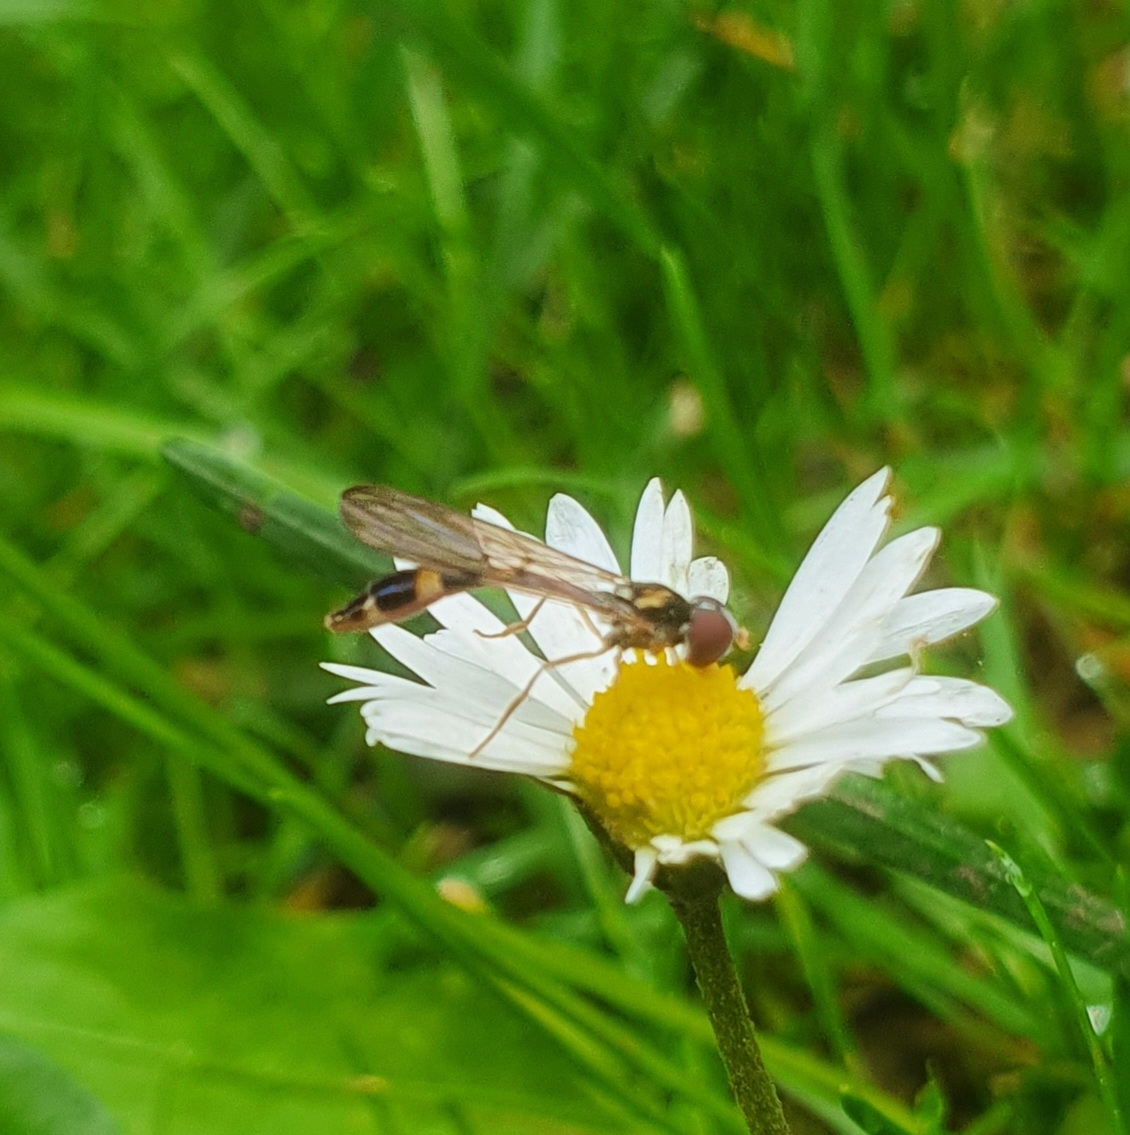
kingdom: Animalia
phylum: Arthropoda
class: Insecta
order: Diptera
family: Syrphidae
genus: Baccha
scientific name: Baccha elongata
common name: Mat spydsvirreflue
